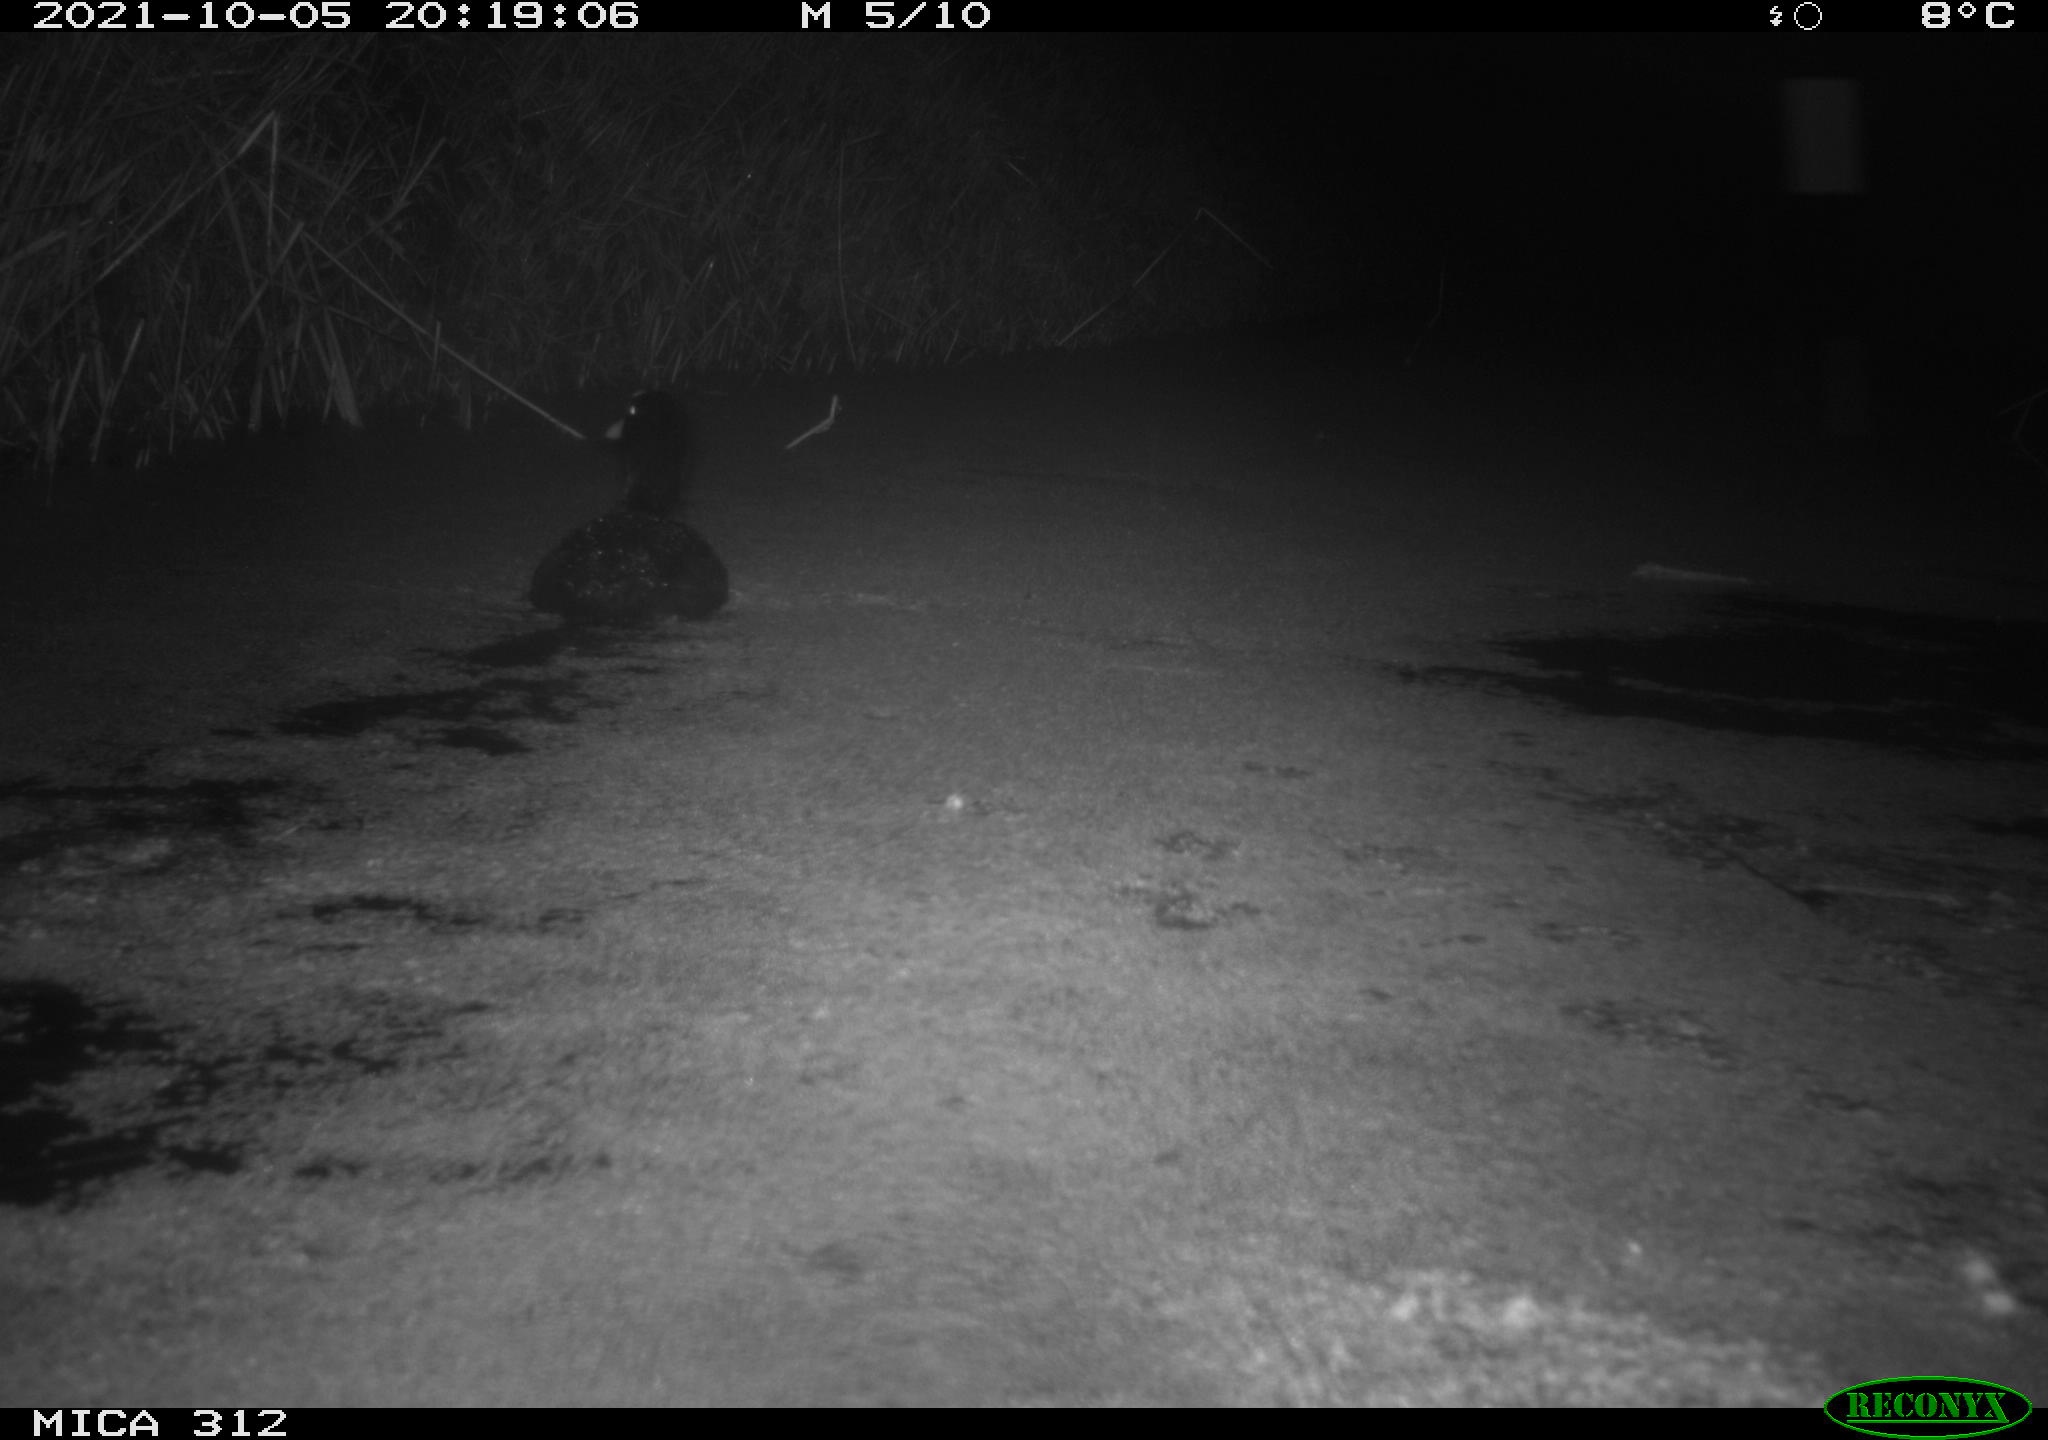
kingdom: Animalia
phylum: Chordata
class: Aves
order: Anseriformes
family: Anatidae
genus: Anas
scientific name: Anas
